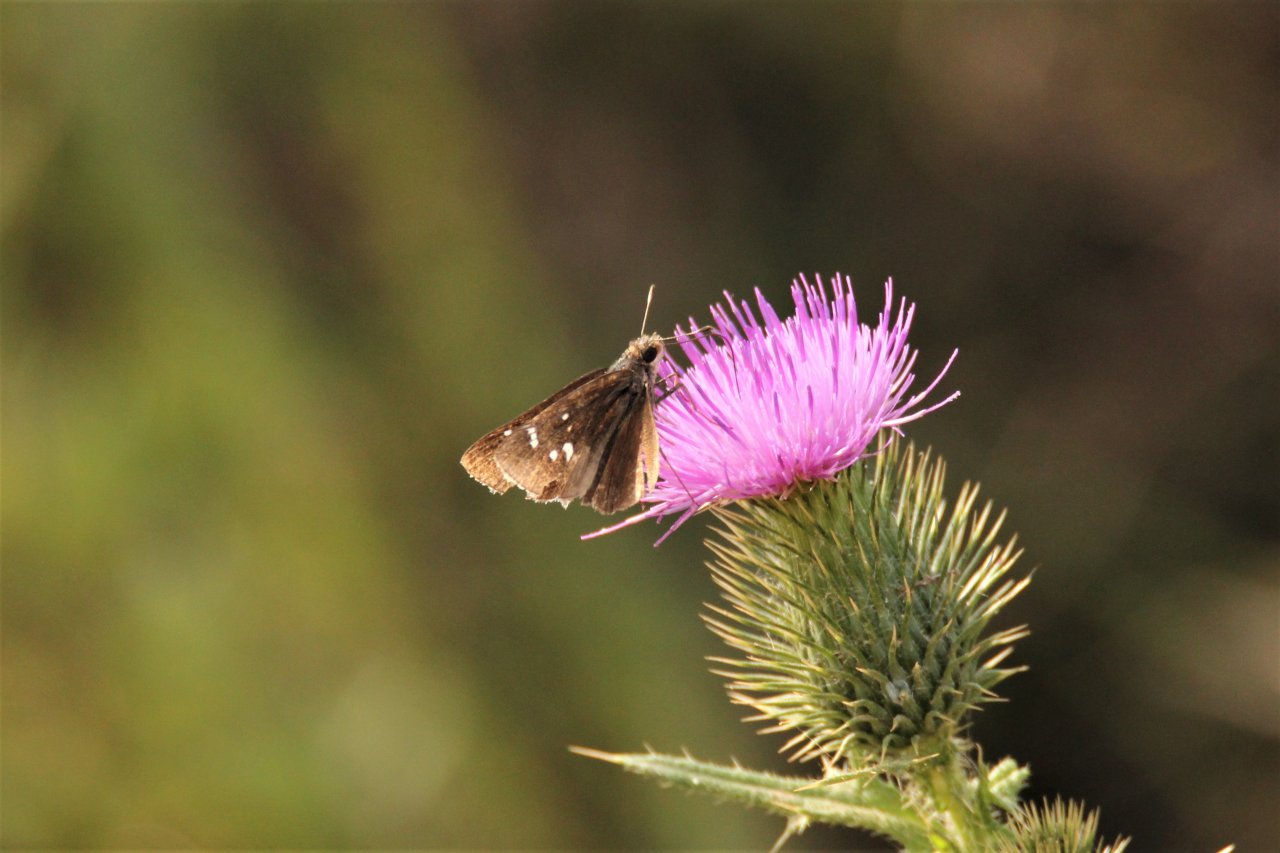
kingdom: Animalia
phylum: Arthropoda
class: Insecta
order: Lepidoptera
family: Hesperiidae
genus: Lerodea
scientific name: Lerodea eufala
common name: Eufala Skipper
